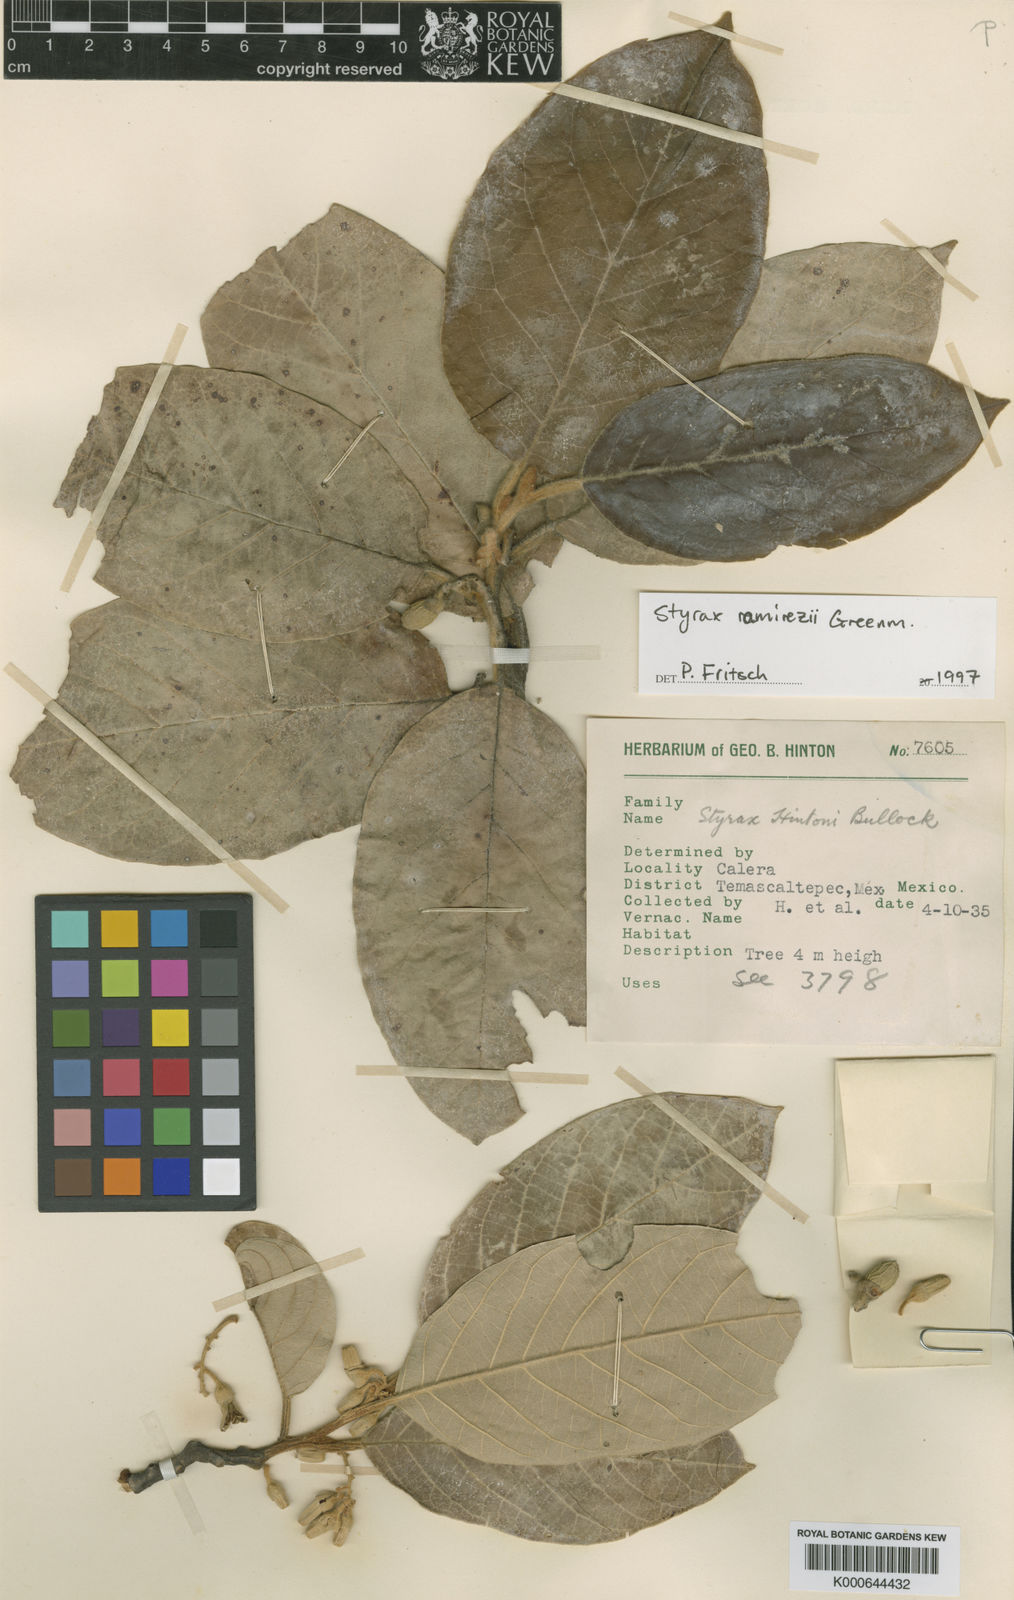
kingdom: Plantae
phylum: Tracheophyta
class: Magnoliopsida
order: Ericales
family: Styracaceae
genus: Styrax
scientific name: Styrax argenteus
